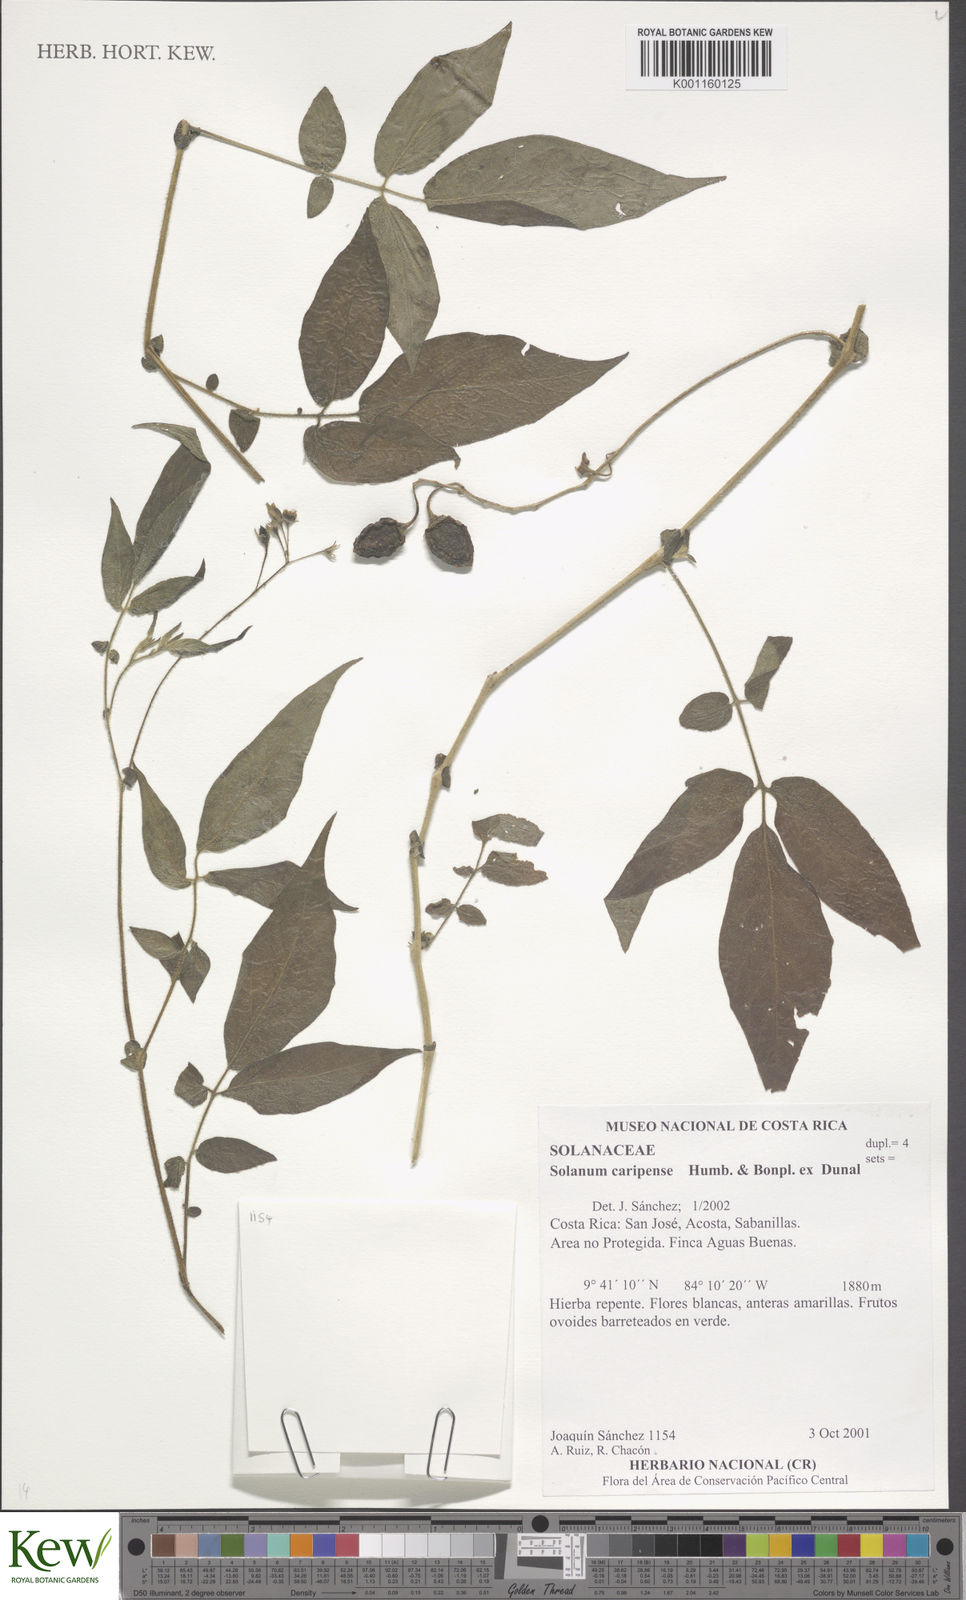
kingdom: Plantae
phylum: Tracheophyta
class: Magnoliopsida
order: Solanales
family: Solanaceae
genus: Solanum
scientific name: Solanum caripense
